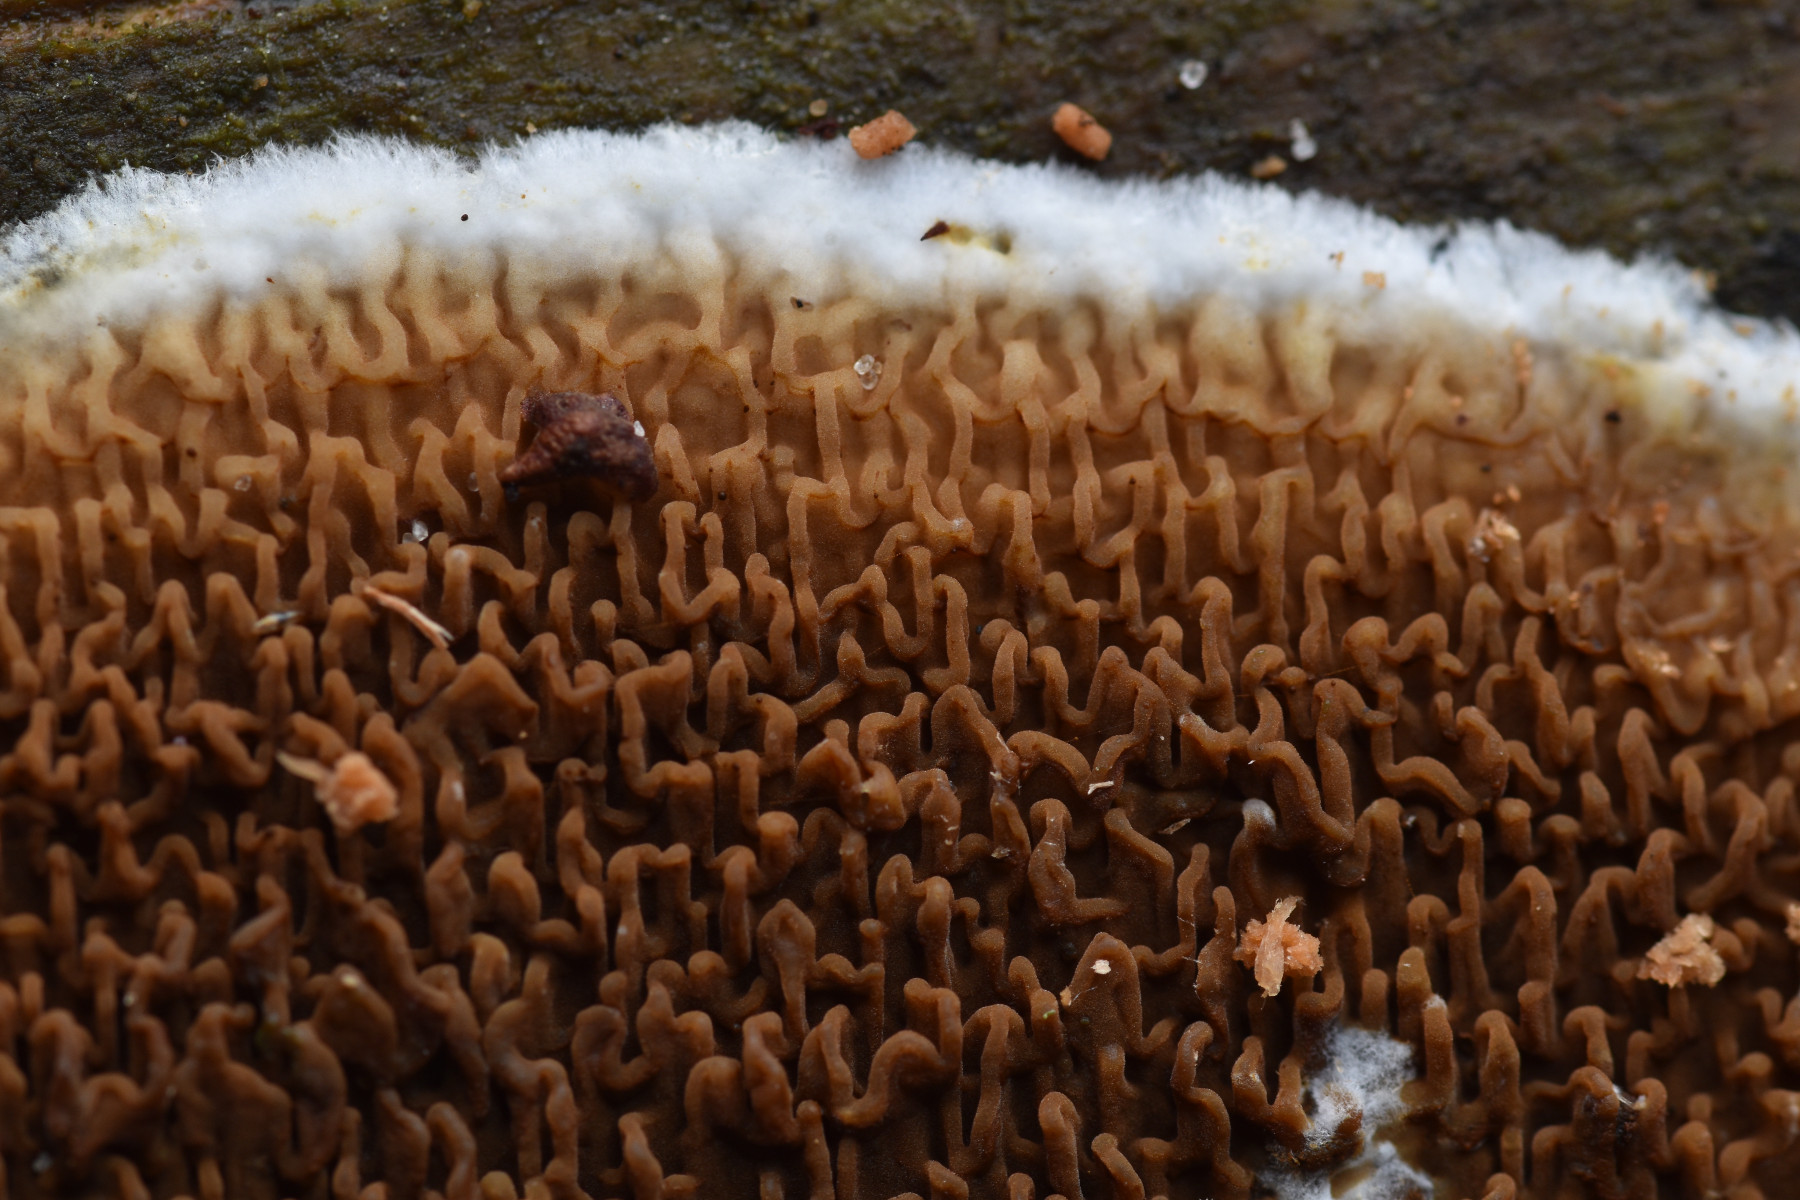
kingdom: Fungi
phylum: Basidiomycota
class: Agaricomycetes
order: Boletales
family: Serpulaceae
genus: Serpula
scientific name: Serpula himantioides
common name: tyndkødet hussvamp
